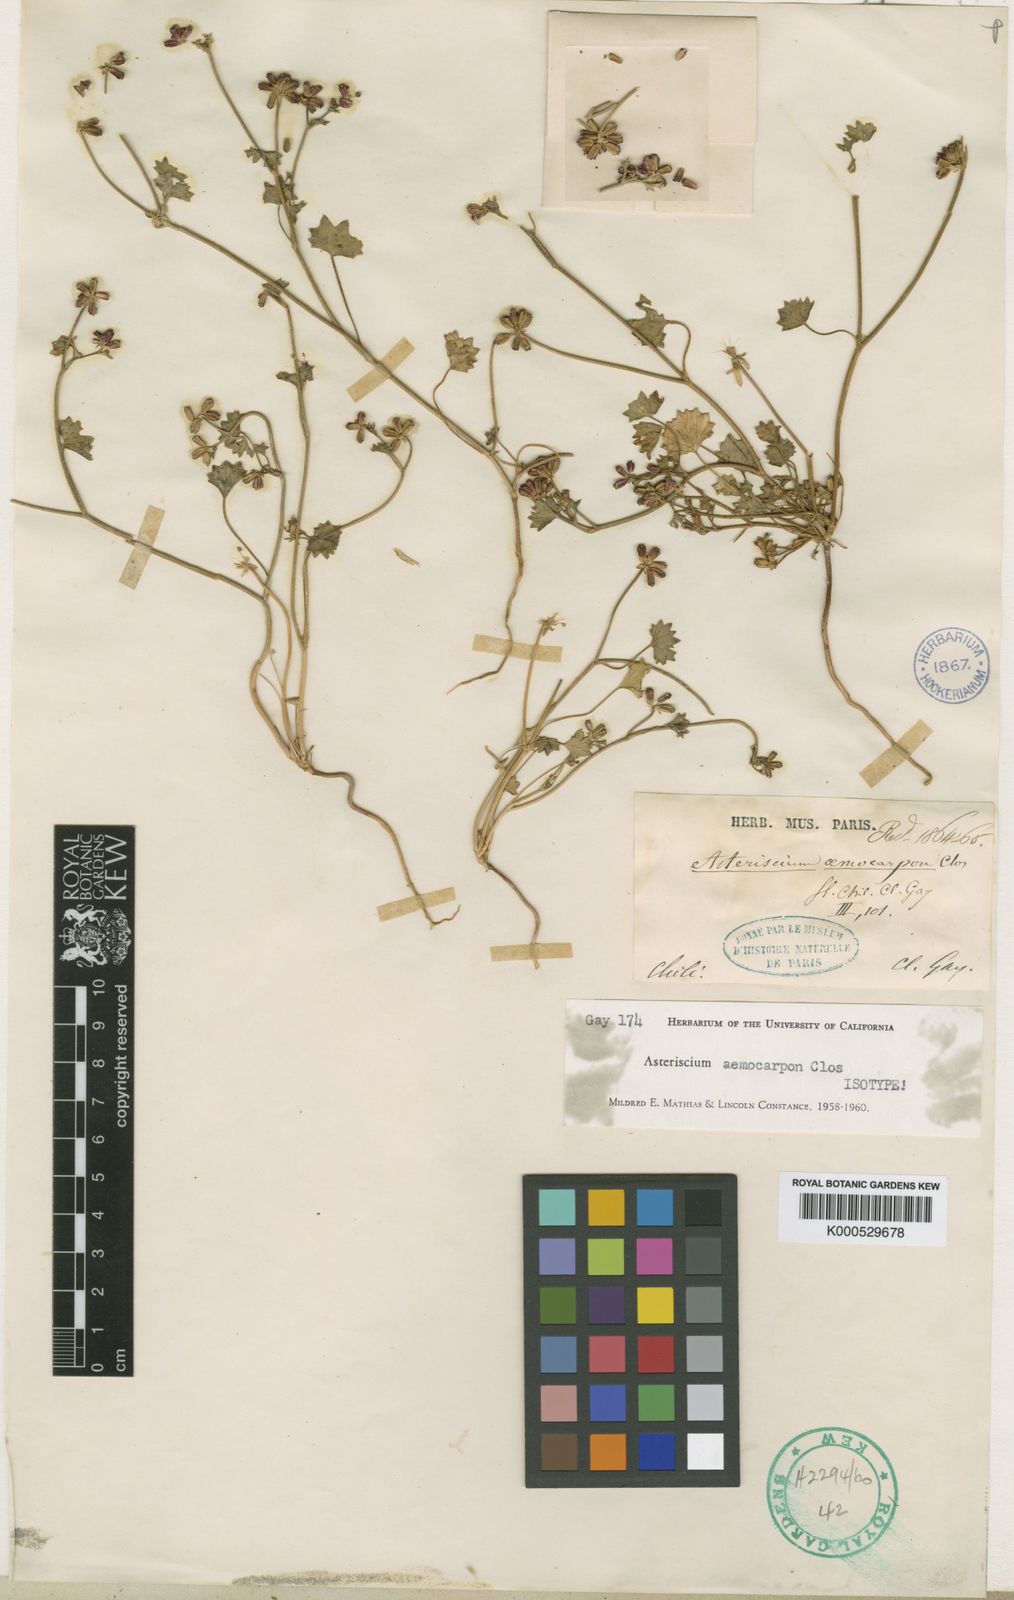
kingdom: Plantae
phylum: Tracheophyta
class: Magnoliopsida
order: Apiales
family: Apiaceae
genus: Asteriscium
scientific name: Asteriscium aemocarpon
